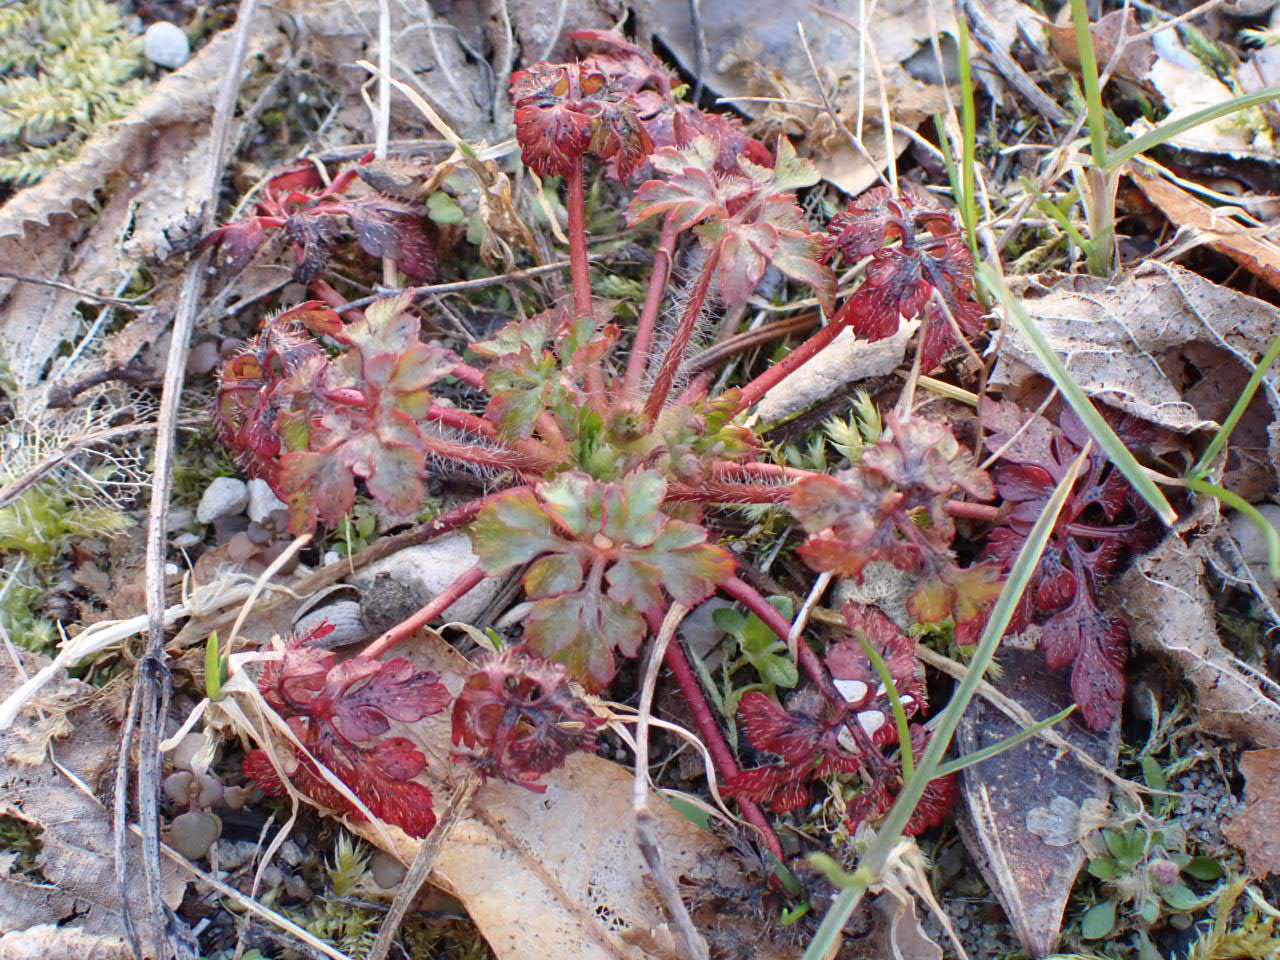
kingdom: Plantae
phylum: Tracheophyta
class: Magnoliopsida
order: Geraniales
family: Geraniaceae
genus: Geranium
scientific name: Geranium robertianum
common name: Stinkende storkenæb
